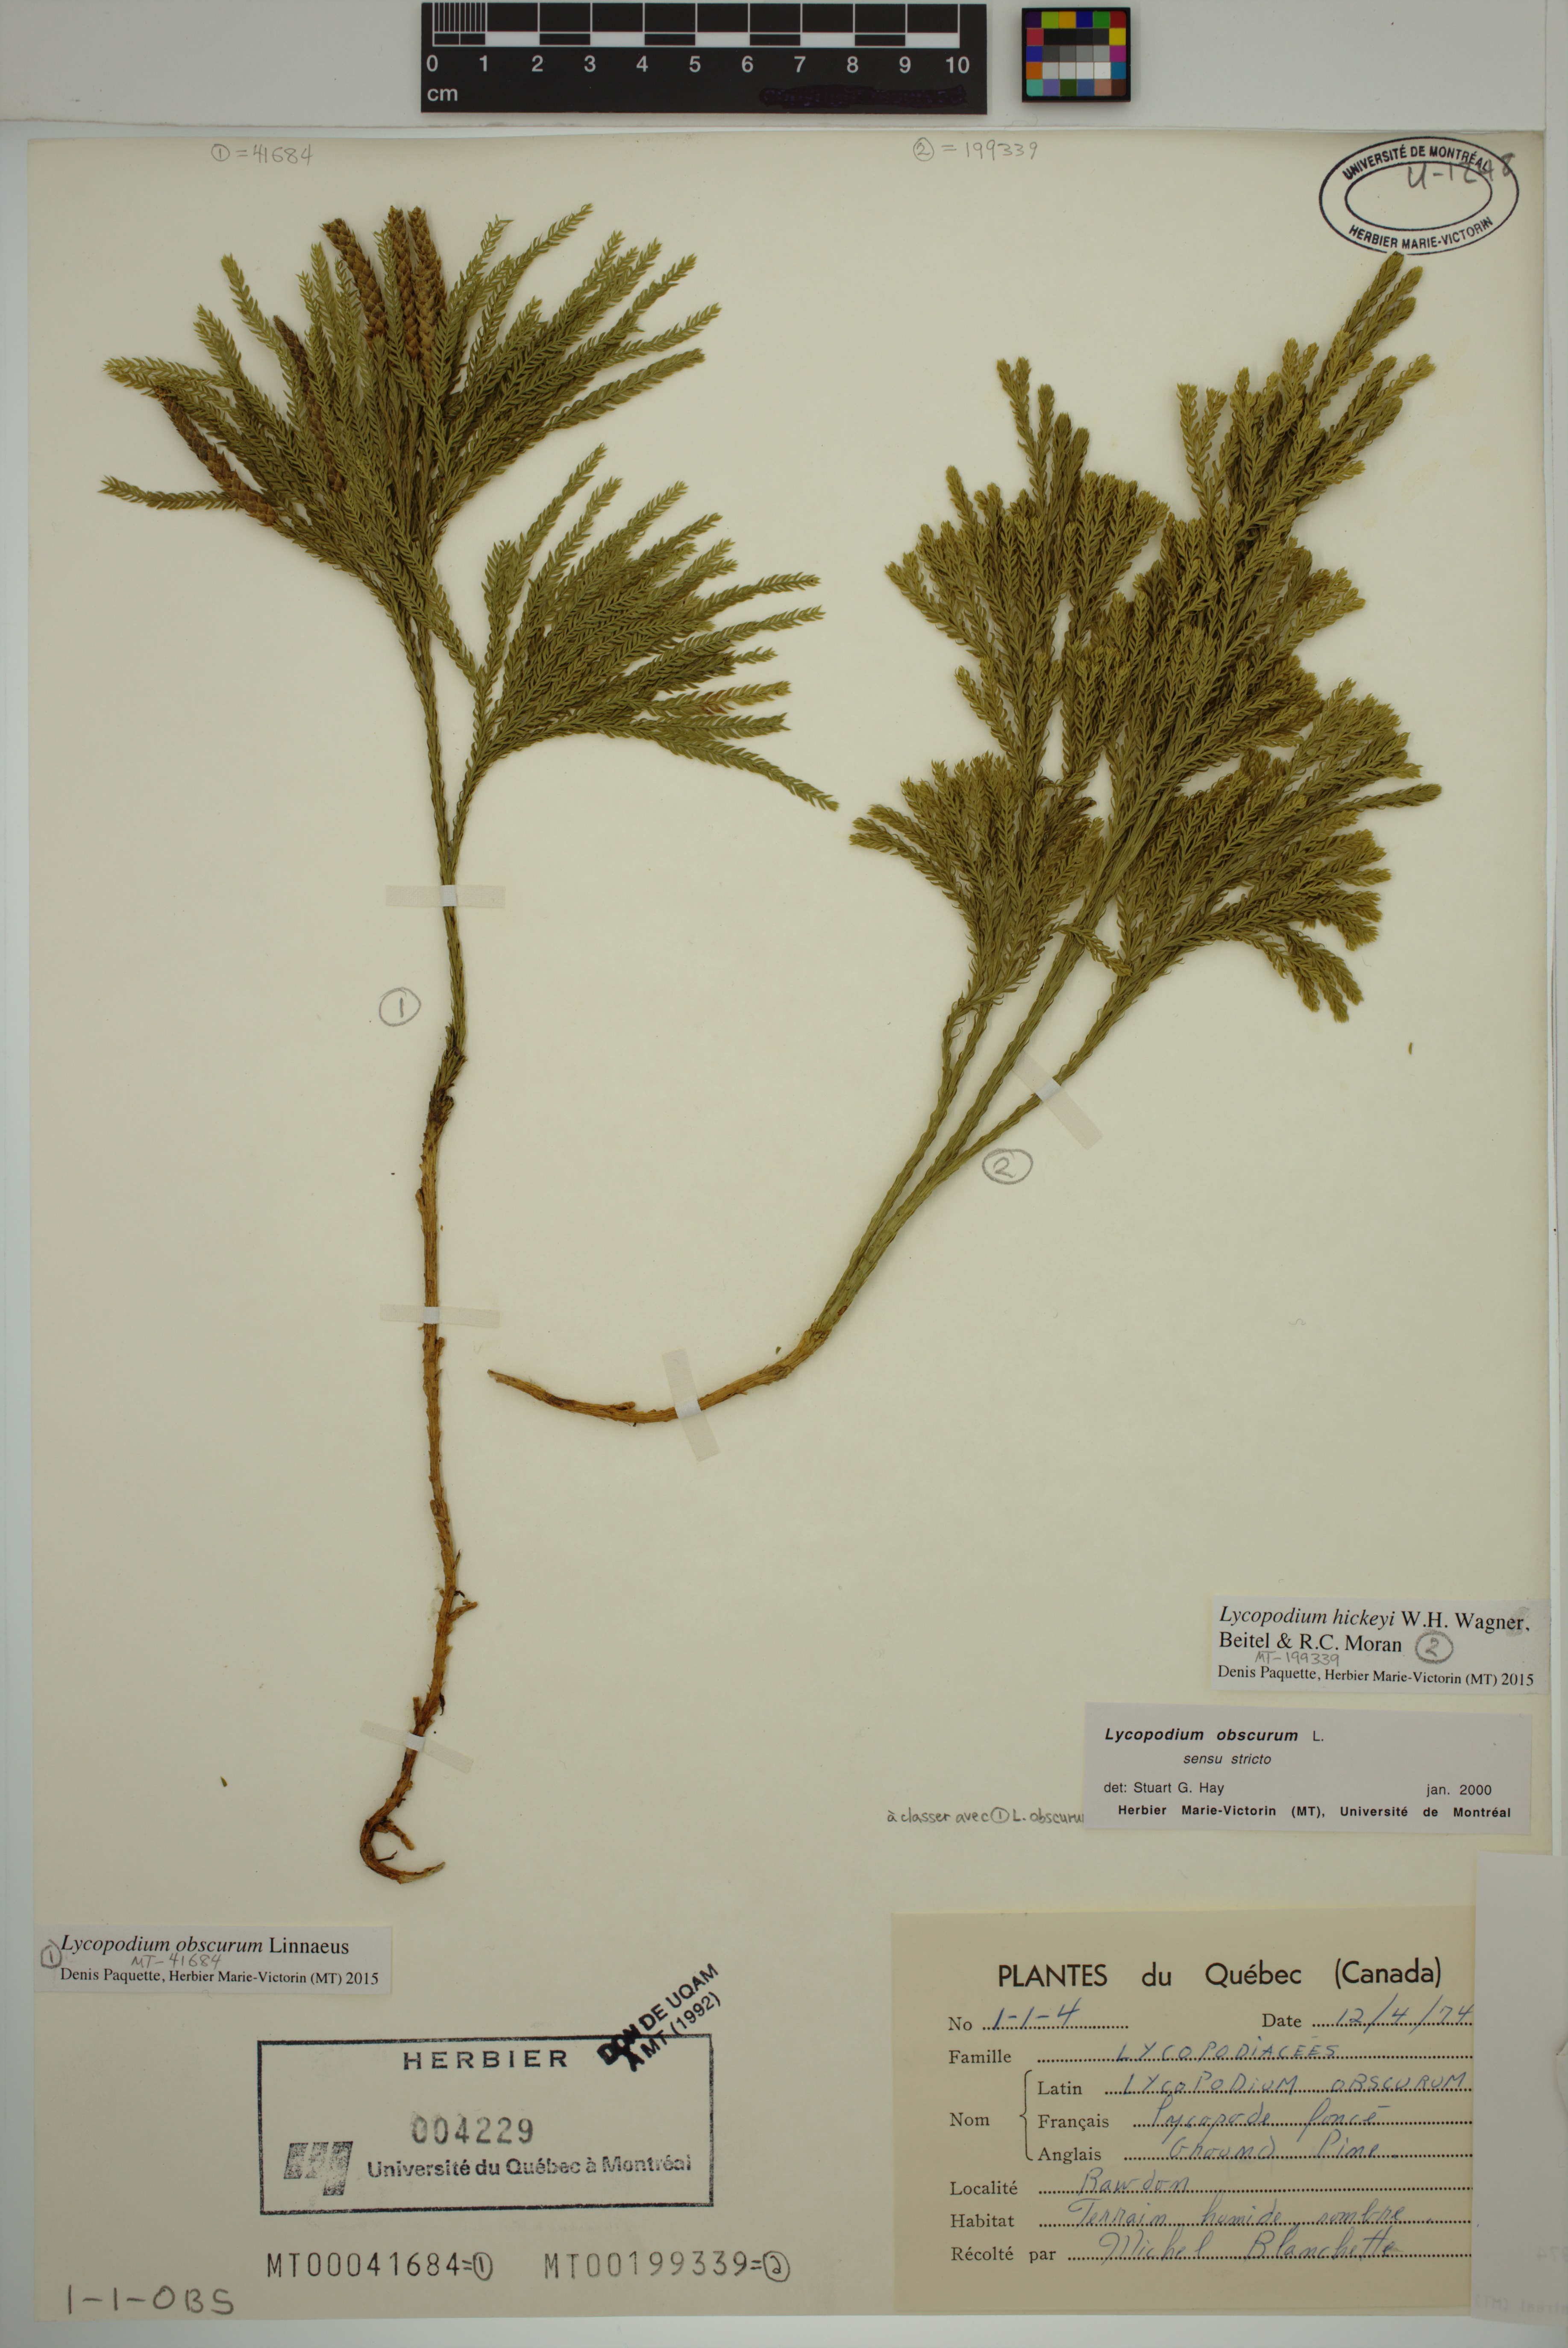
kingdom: Plantae
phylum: Tracheophyta
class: Lycopodiopsida
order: Lycopodiales
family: Lycopodiaceae
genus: Dendrolycopodium
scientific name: Dendrolycopodium obscurum
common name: Common ground-pine
